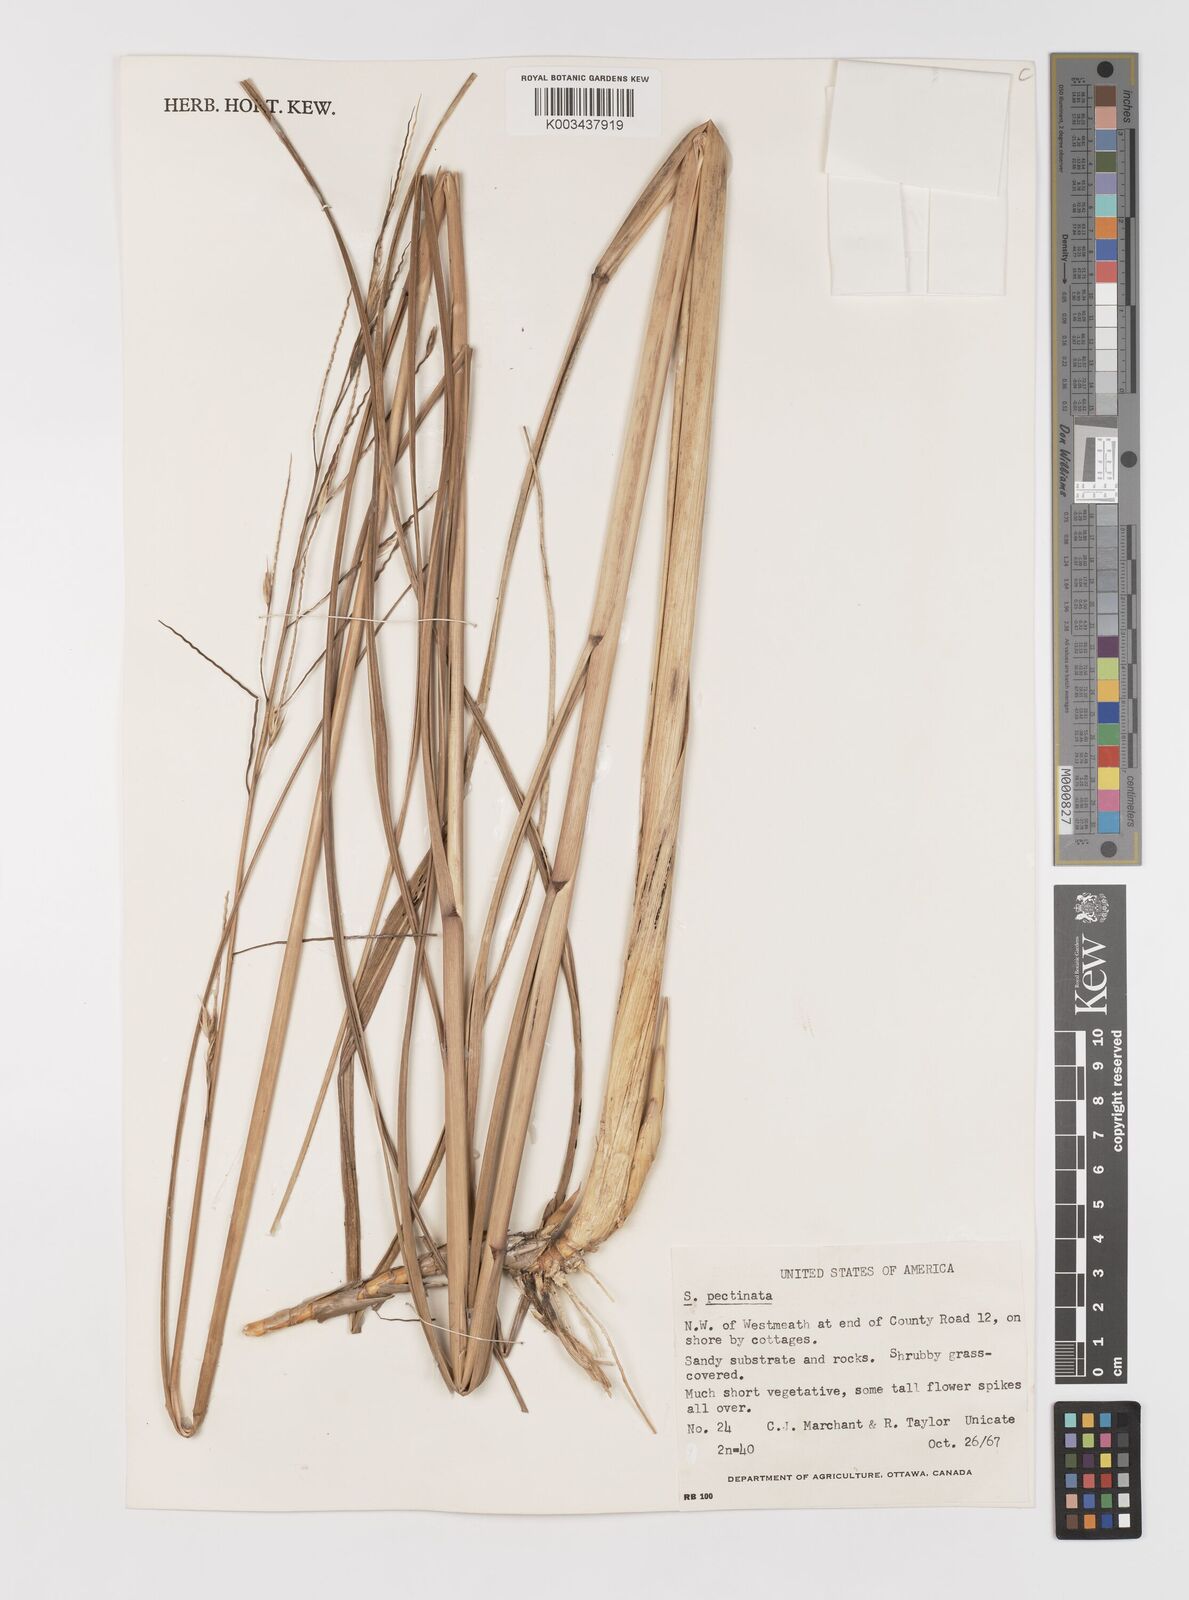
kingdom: Plantae
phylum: Tracheophyta
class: Liliopsida
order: Poales
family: Poaceae
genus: Sporobolus
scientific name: Sporobolus michauxianus
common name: Freshwater cordgrass
